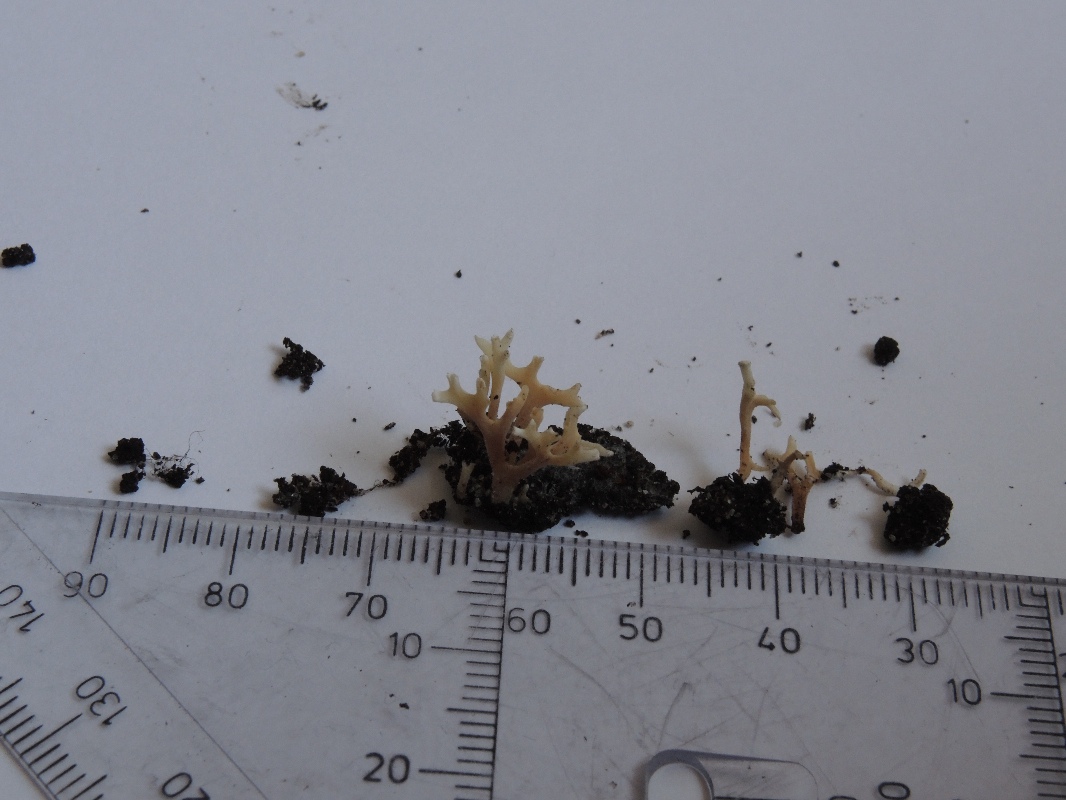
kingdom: Fungi
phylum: Basidiomycota
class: Agaricomycetes
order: Agaricales
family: Clavariaceae
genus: Clavulinopsis
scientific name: Clavulinopsis rufipes
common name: småsporet køllesvamp
